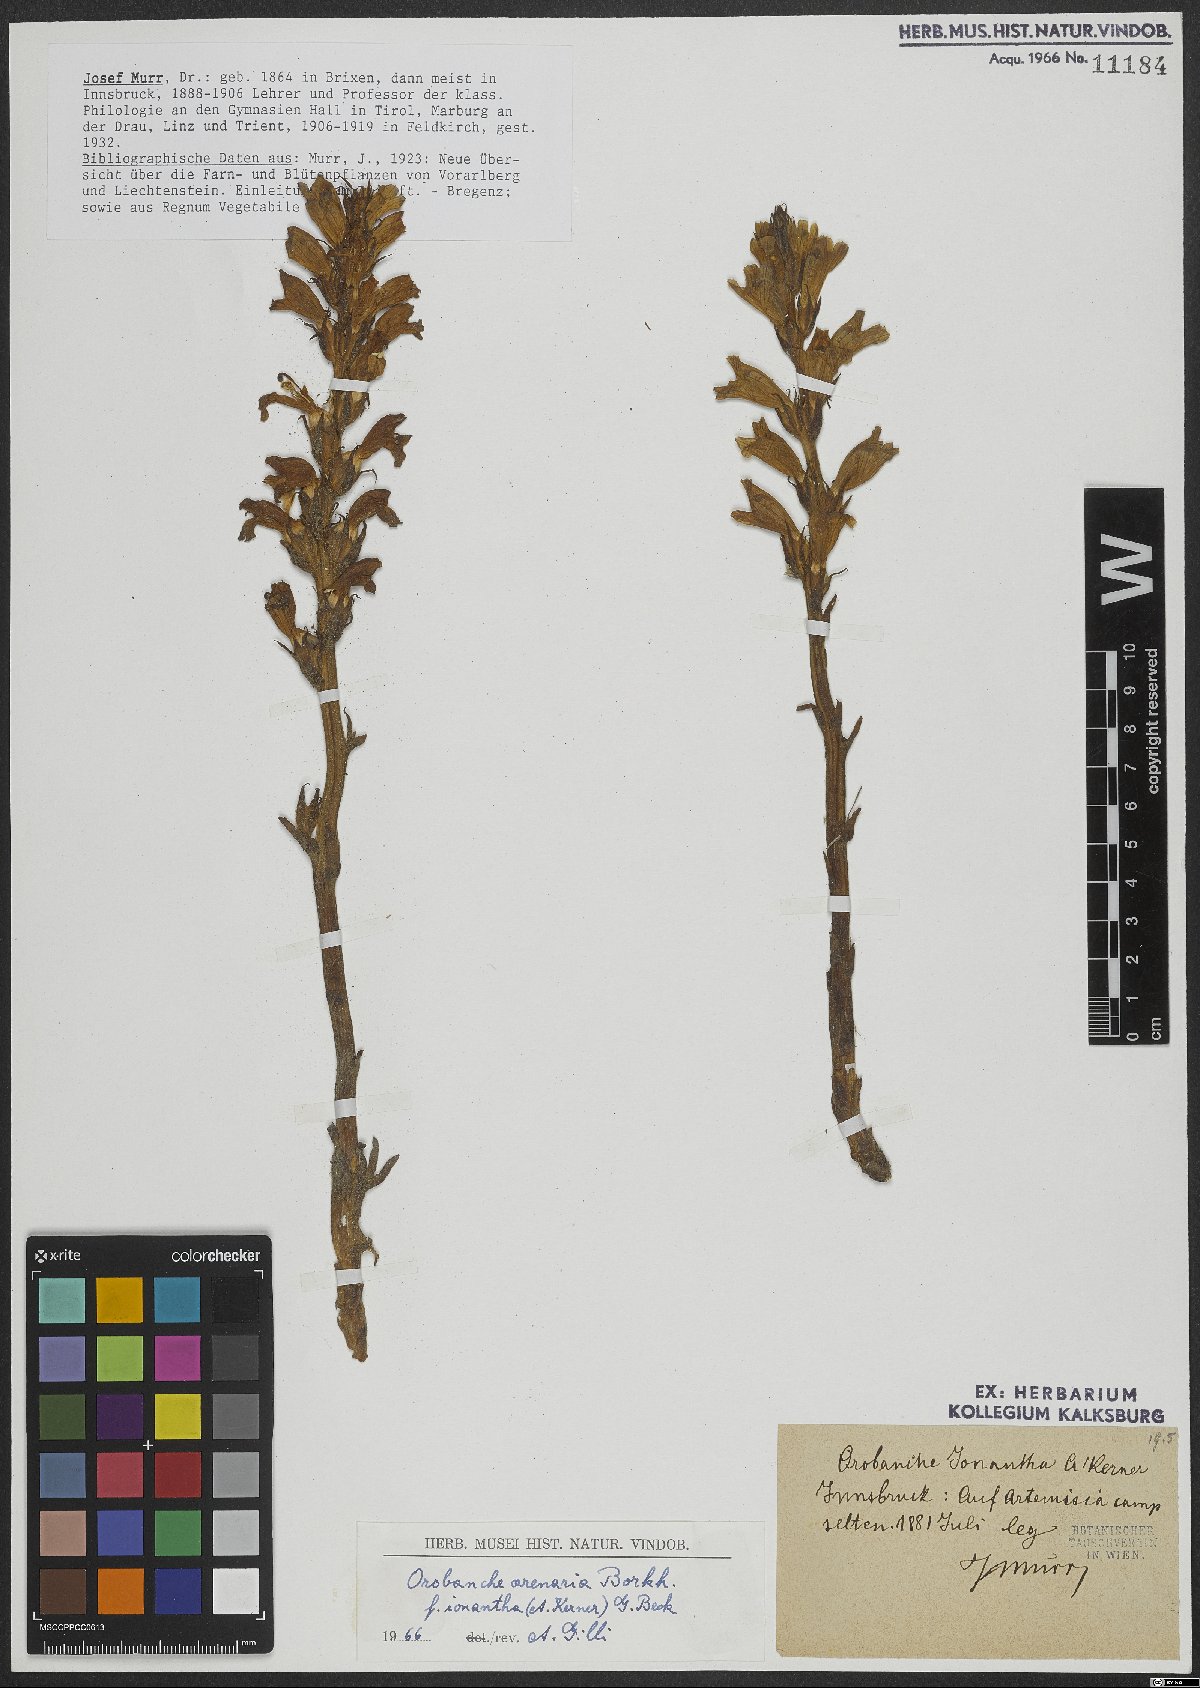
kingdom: Plantae
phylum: Tracheophyta
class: Magnoliopsida
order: Lamiales
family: Orobanchaceae
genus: Phelipanche
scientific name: Phelipanche arenaria
